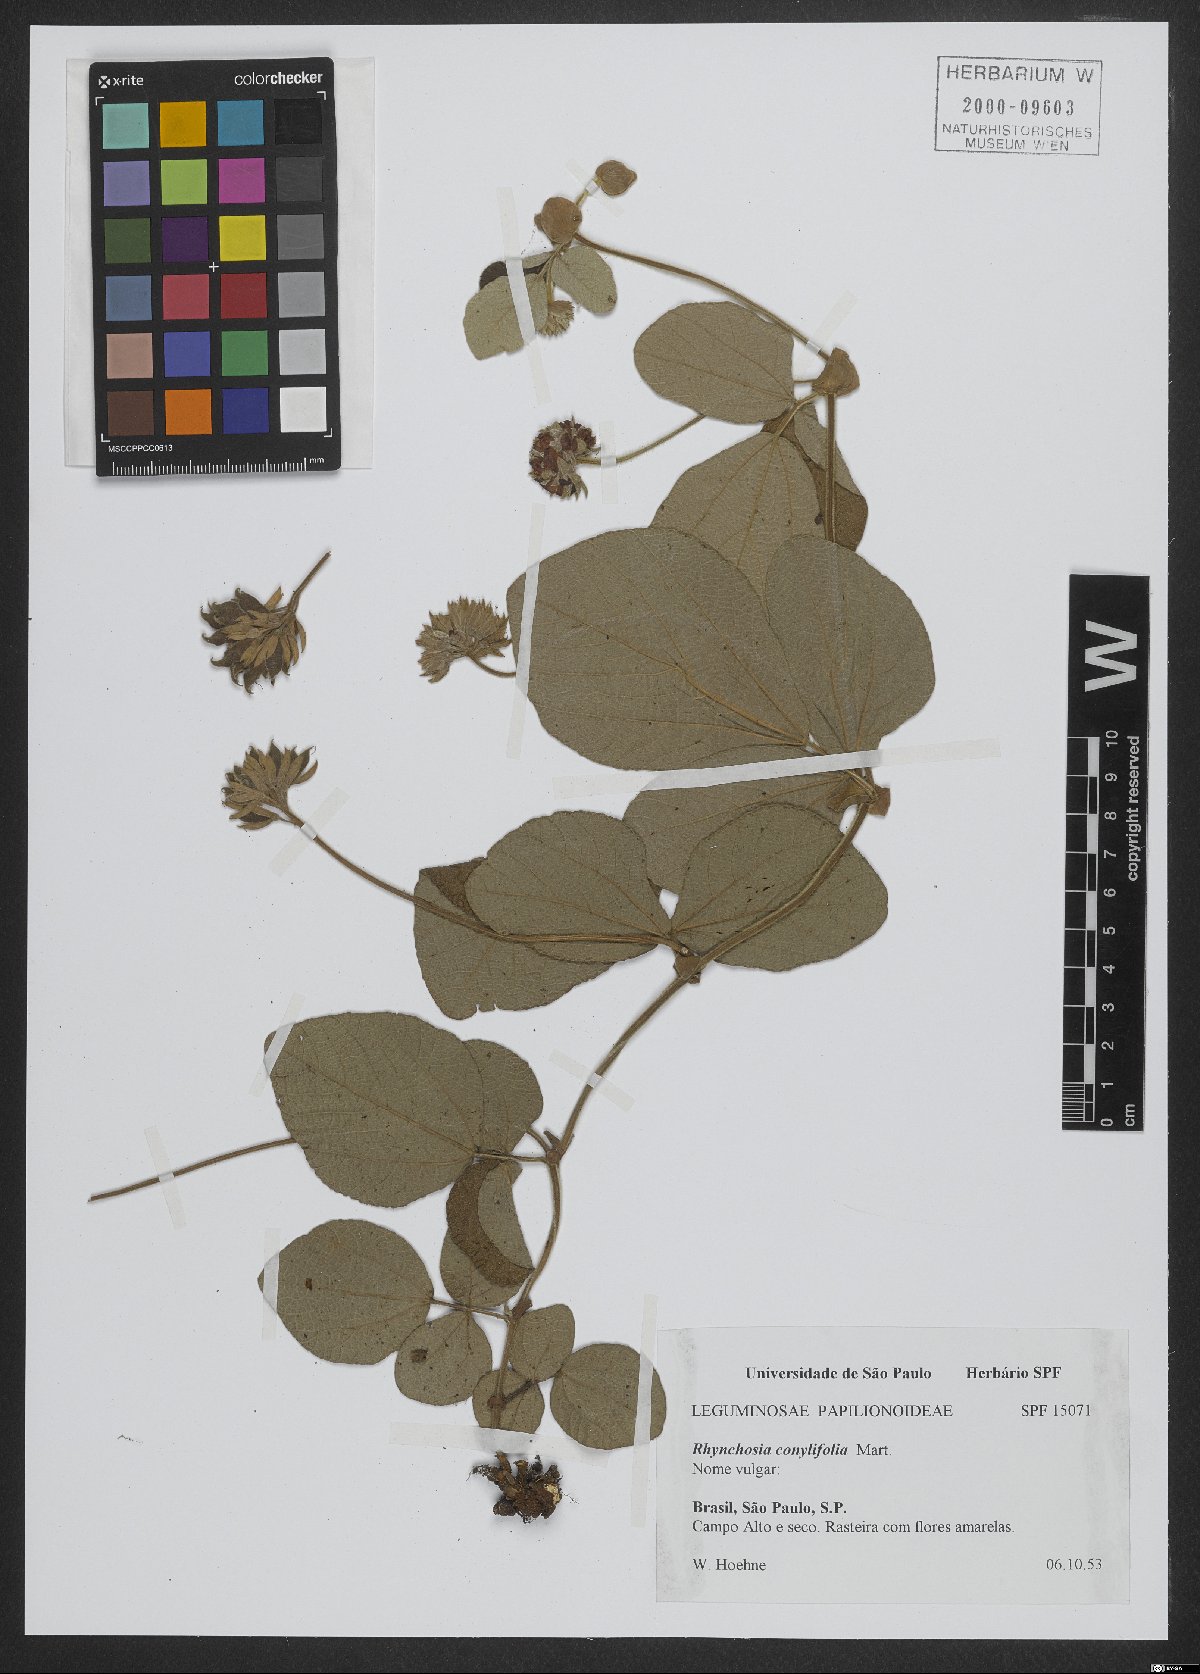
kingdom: Plantae
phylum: Tracheophyta
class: Magnoliopsida
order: Fabales
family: Fabaceae
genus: Rhynchosia
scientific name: Rhynchosia corylifolia
